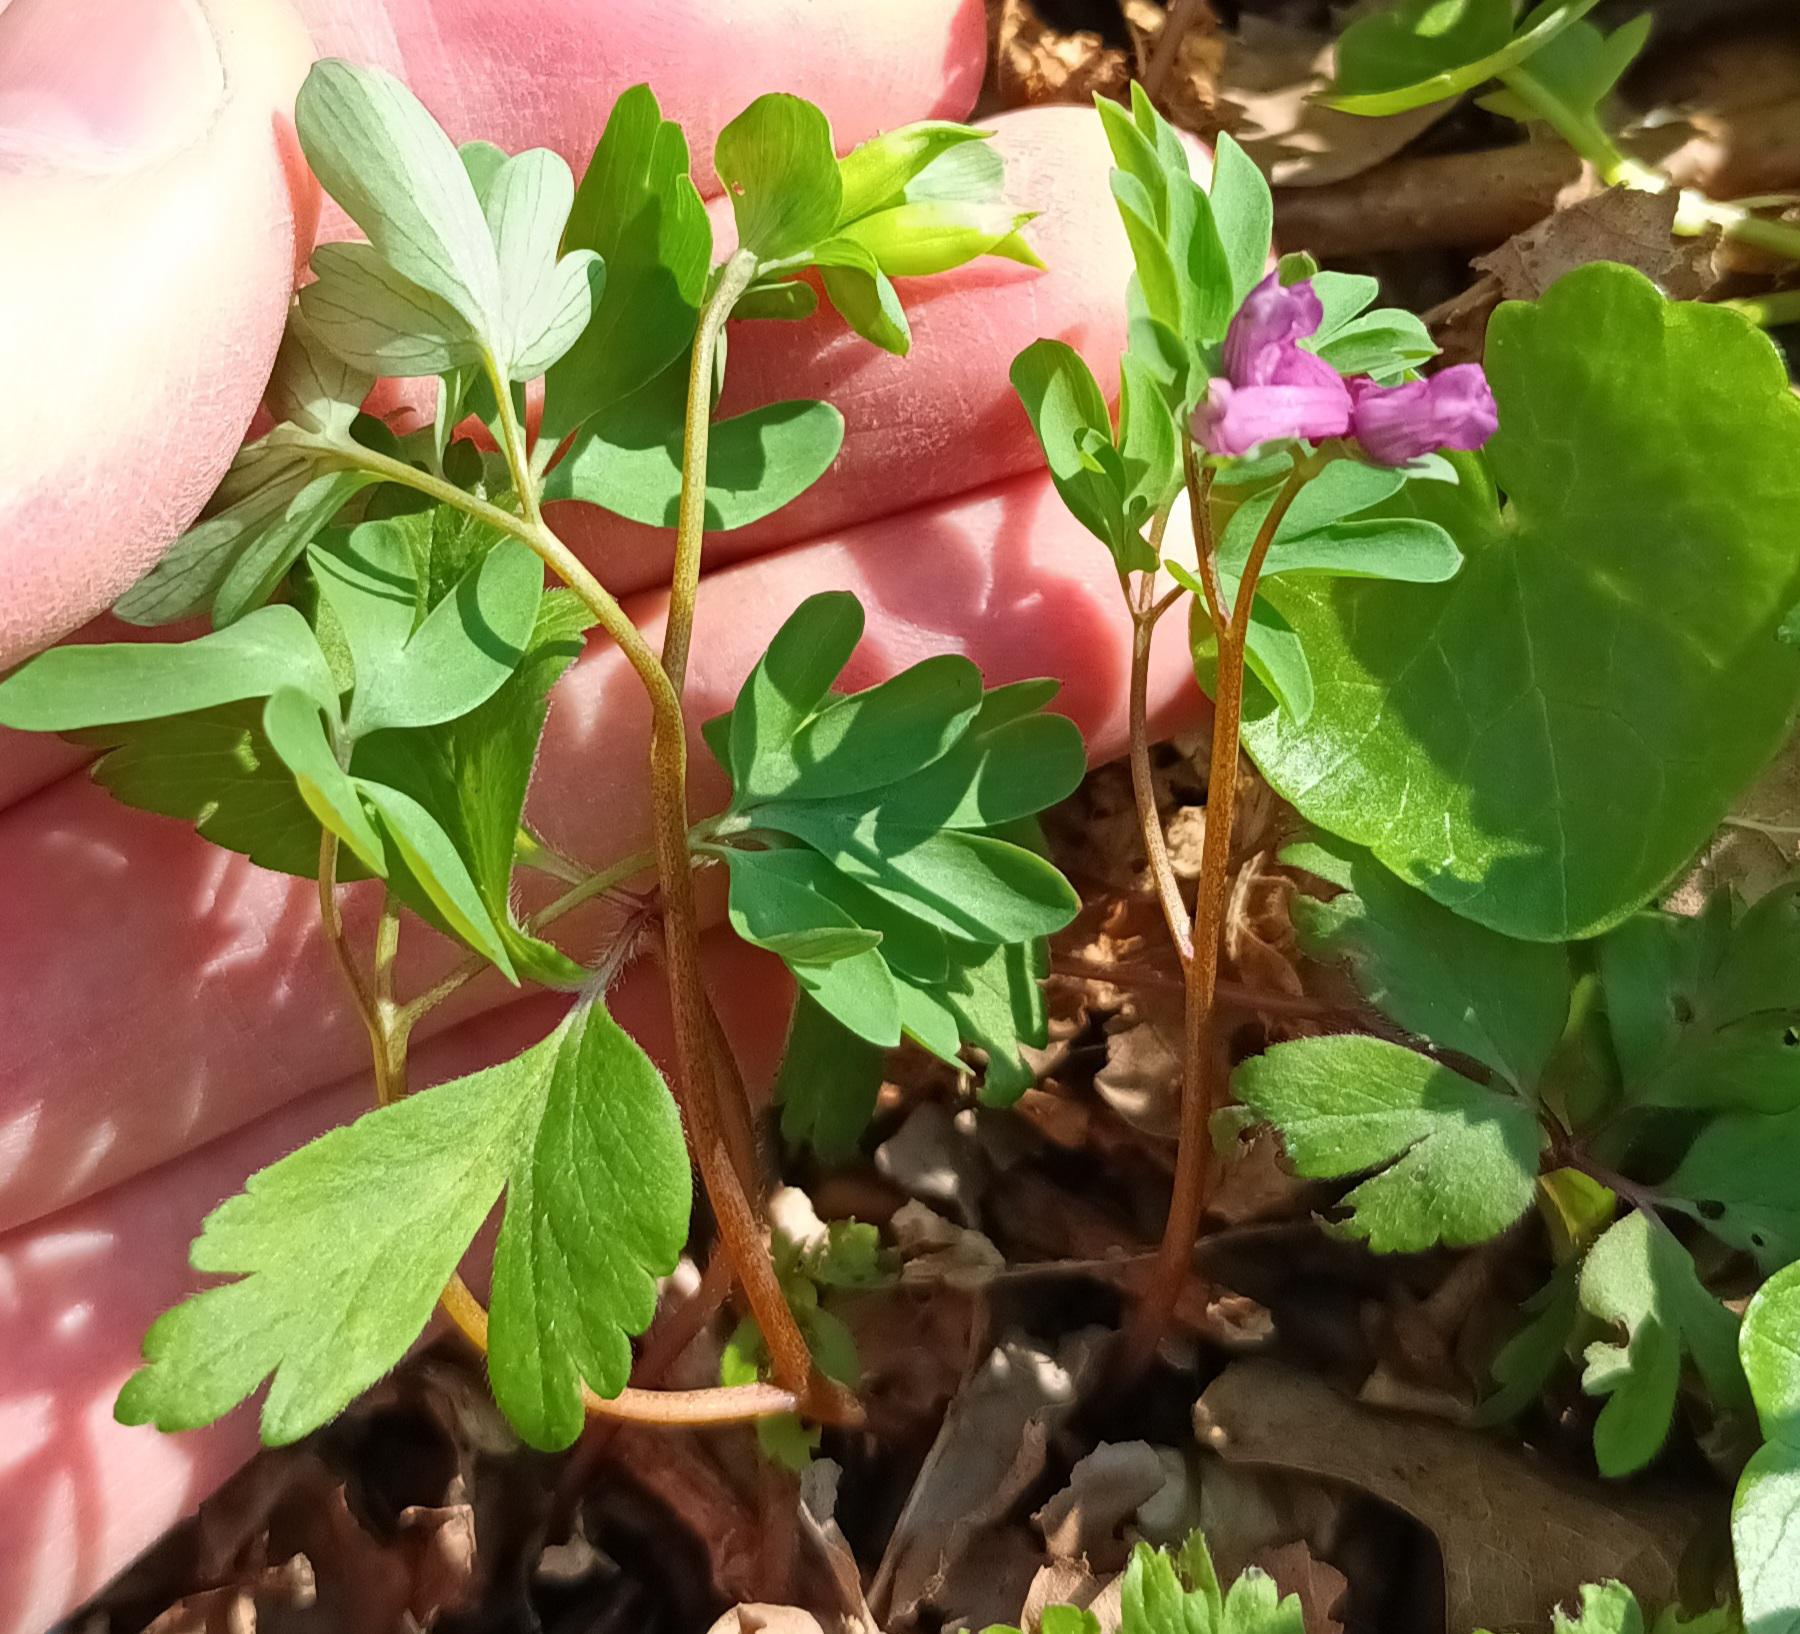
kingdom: Plantae
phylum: Tracheophyta
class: Magnoliopsida
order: Ranunculales
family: Papaveraceae
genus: Corydalis
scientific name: Corydalis intermedia
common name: Liden lærkespore
